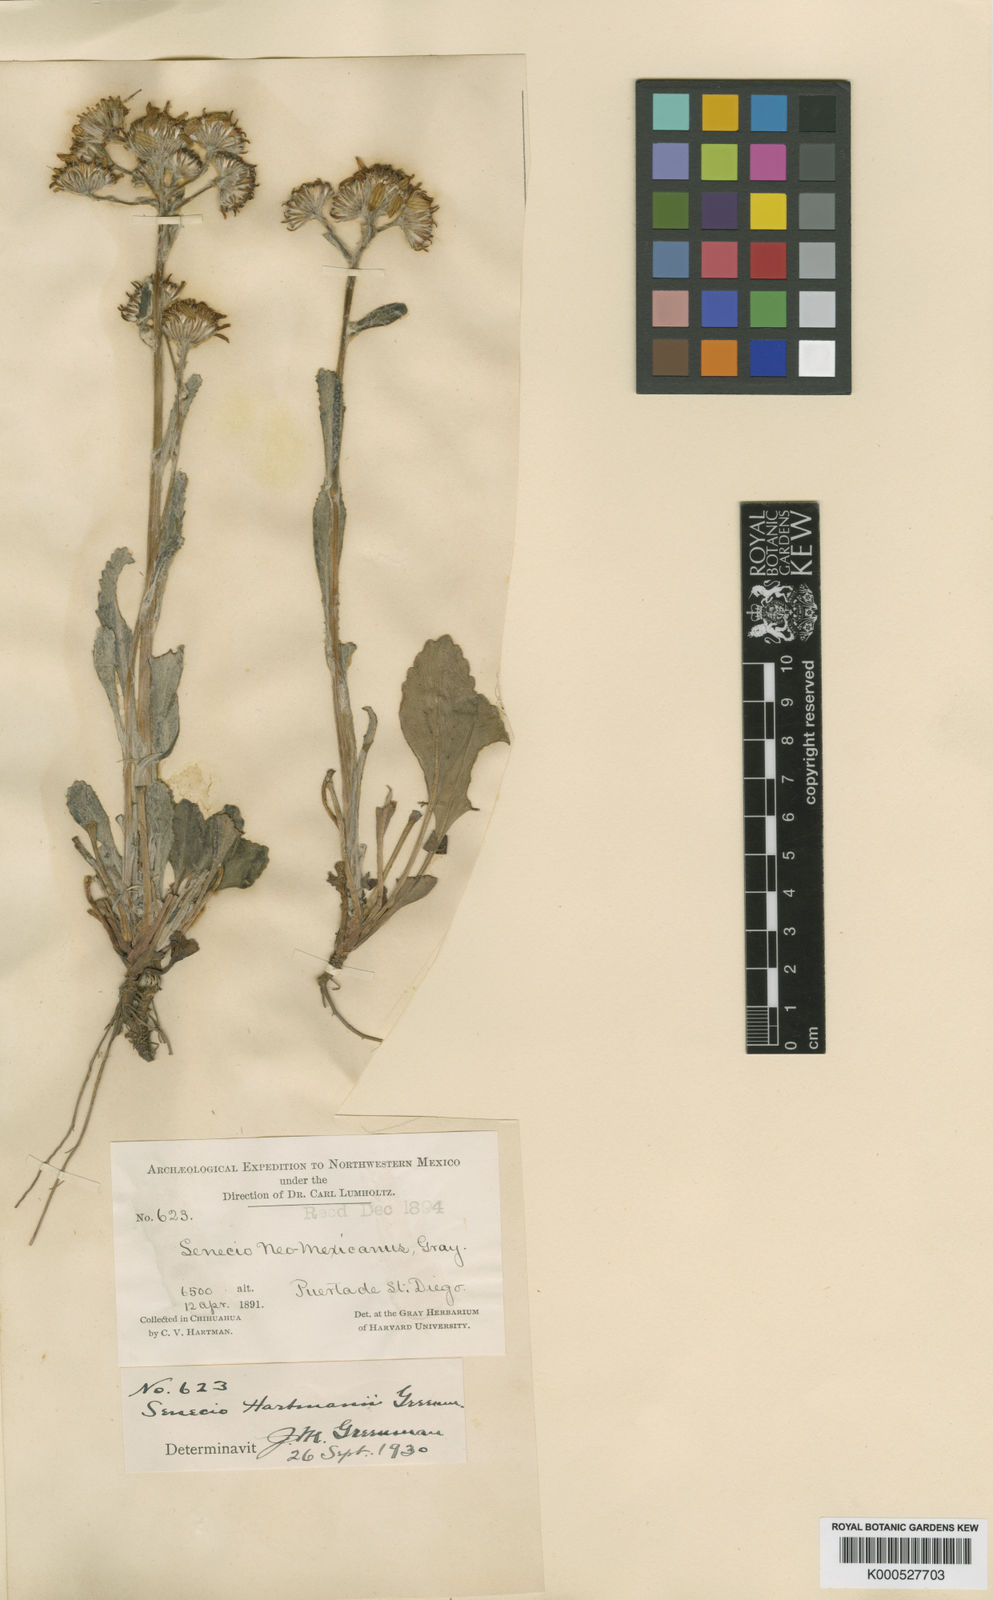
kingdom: Plantae
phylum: Tracheophyta
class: Magnoliopsida
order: Asterales
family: Asteraceae
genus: Packera
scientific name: Packera
